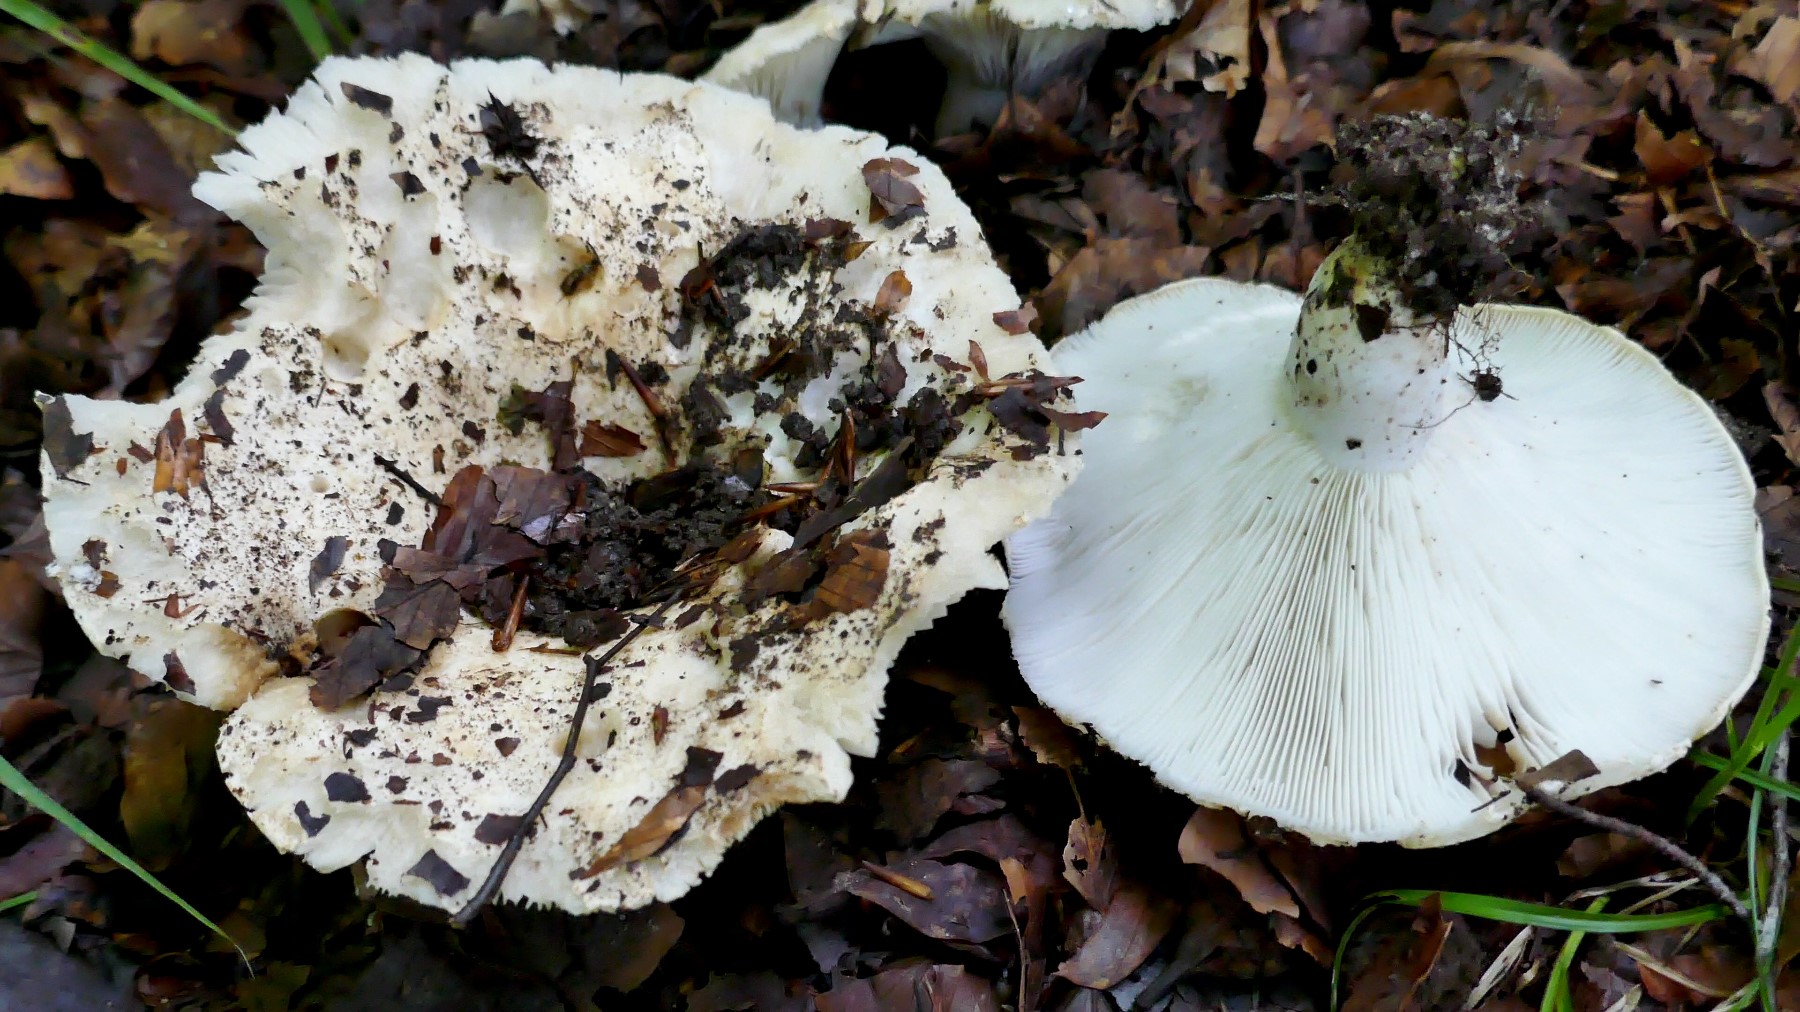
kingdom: Fungi
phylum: Basidiomycota
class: Agaricomycetes
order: Russulales
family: Russulaceae
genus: Russula
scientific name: Russula chloroides
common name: grønhalset tragt-skørhat
